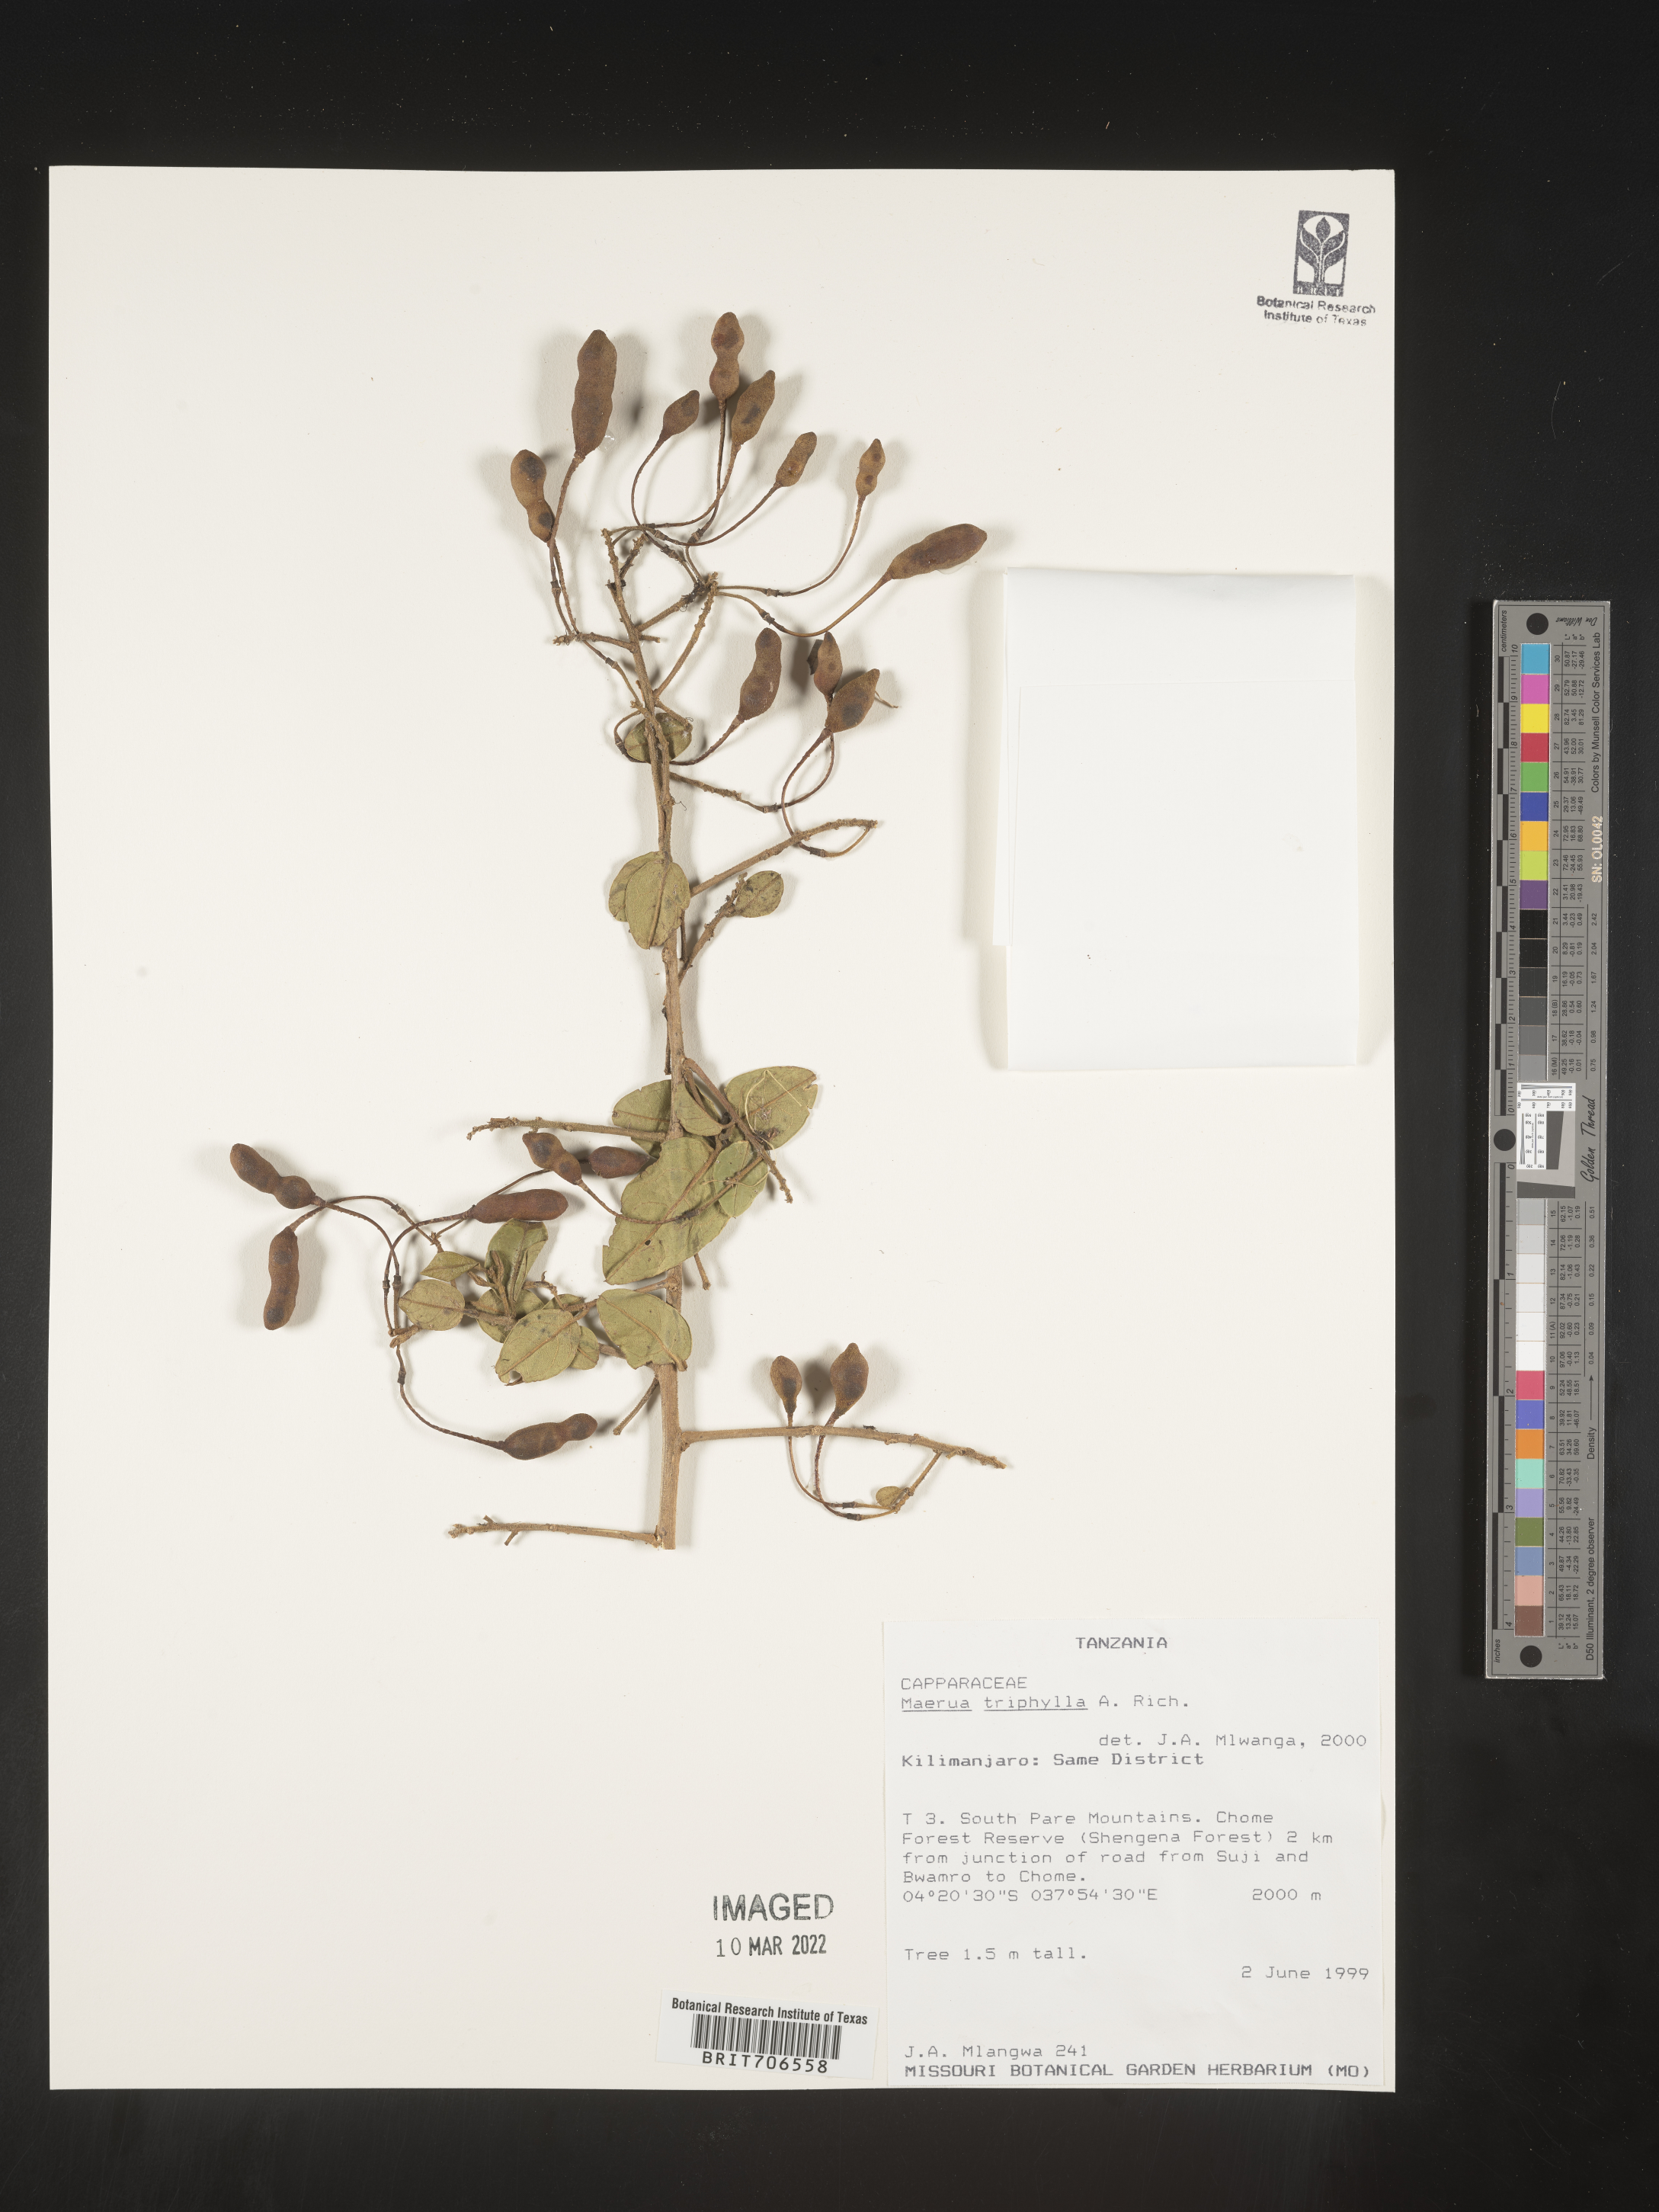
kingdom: Plantae
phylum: Tracheophyta
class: Magnoliopsida
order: Brassicales
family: Capparaceae
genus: Maerua
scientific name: Maerua
